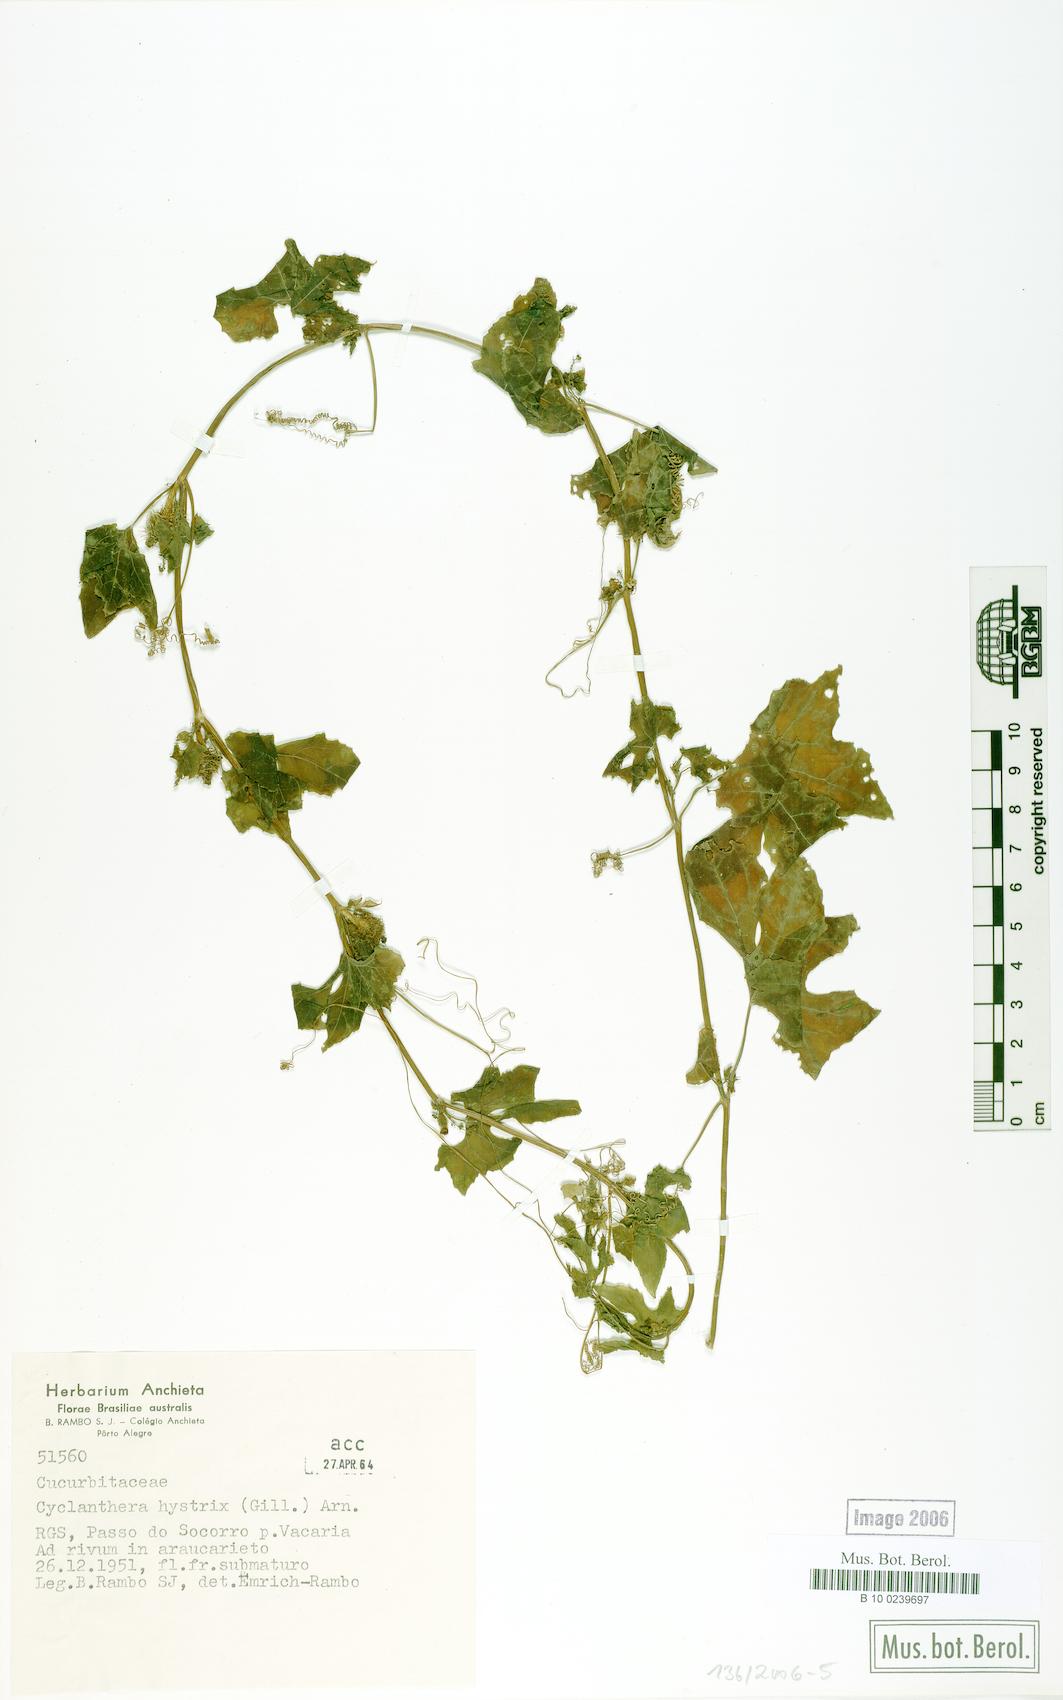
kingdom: Plantae
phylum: Tracheophyta
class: Magnoliopsida
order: Cucurbitales
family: Cucurbitaceae
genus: Cyclanthera
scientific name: Cyclanthera hystrix
